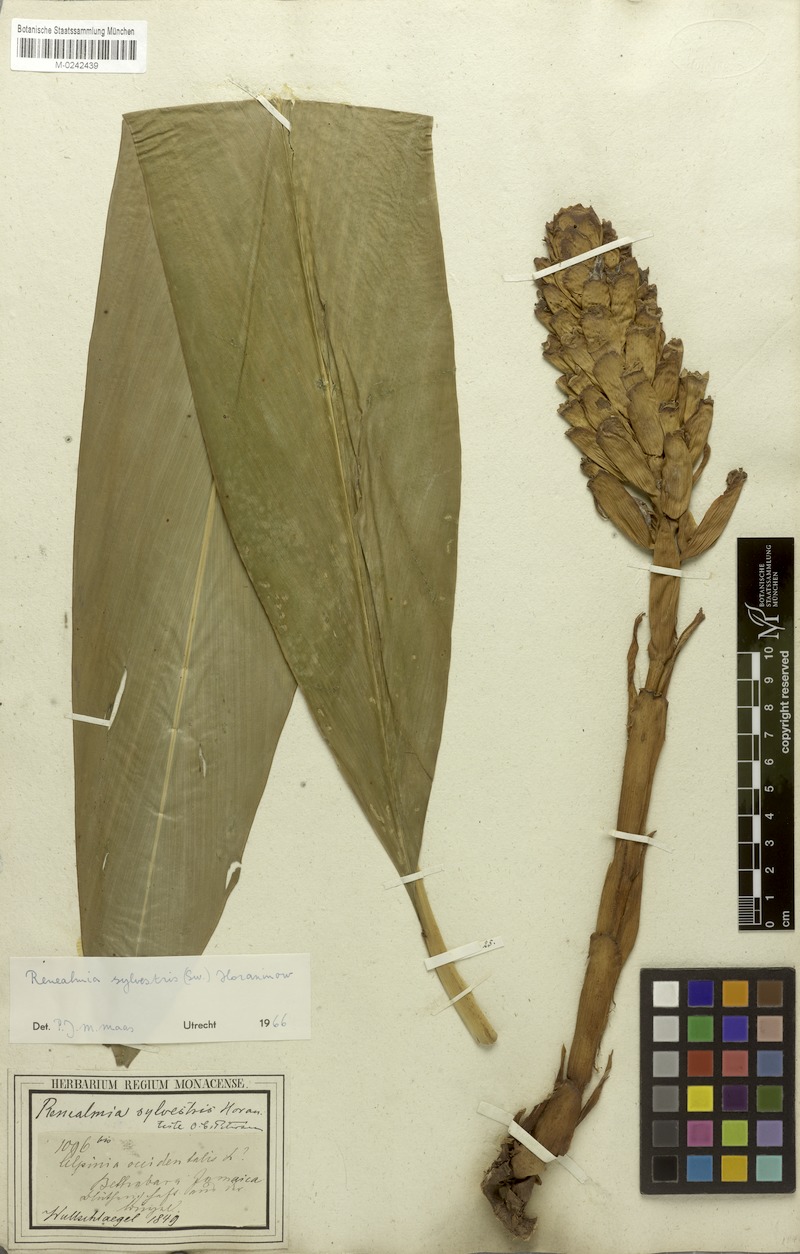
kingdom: Plantae
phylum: Tracheophyta
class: Liliopsida
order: Zingiberales
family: Zingiberaceae
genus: Renealmia
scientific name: Renealmia striata
